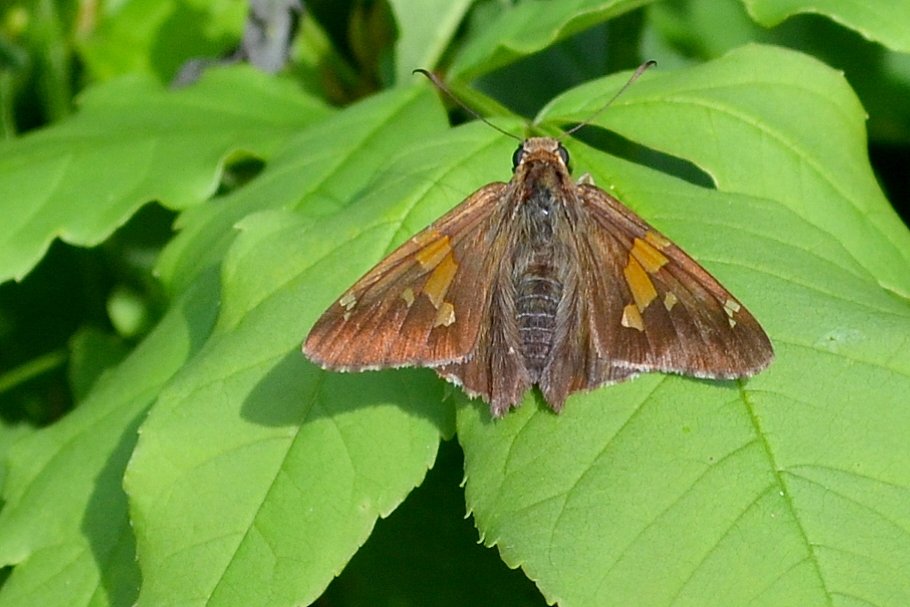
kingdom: Animalia
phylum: Arthropoda
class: Insecta
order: Lepidoptera
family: Hesperiidae
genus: Epargyreus
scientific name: Epargyreus clarus
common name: Silver-spotted Skipper
